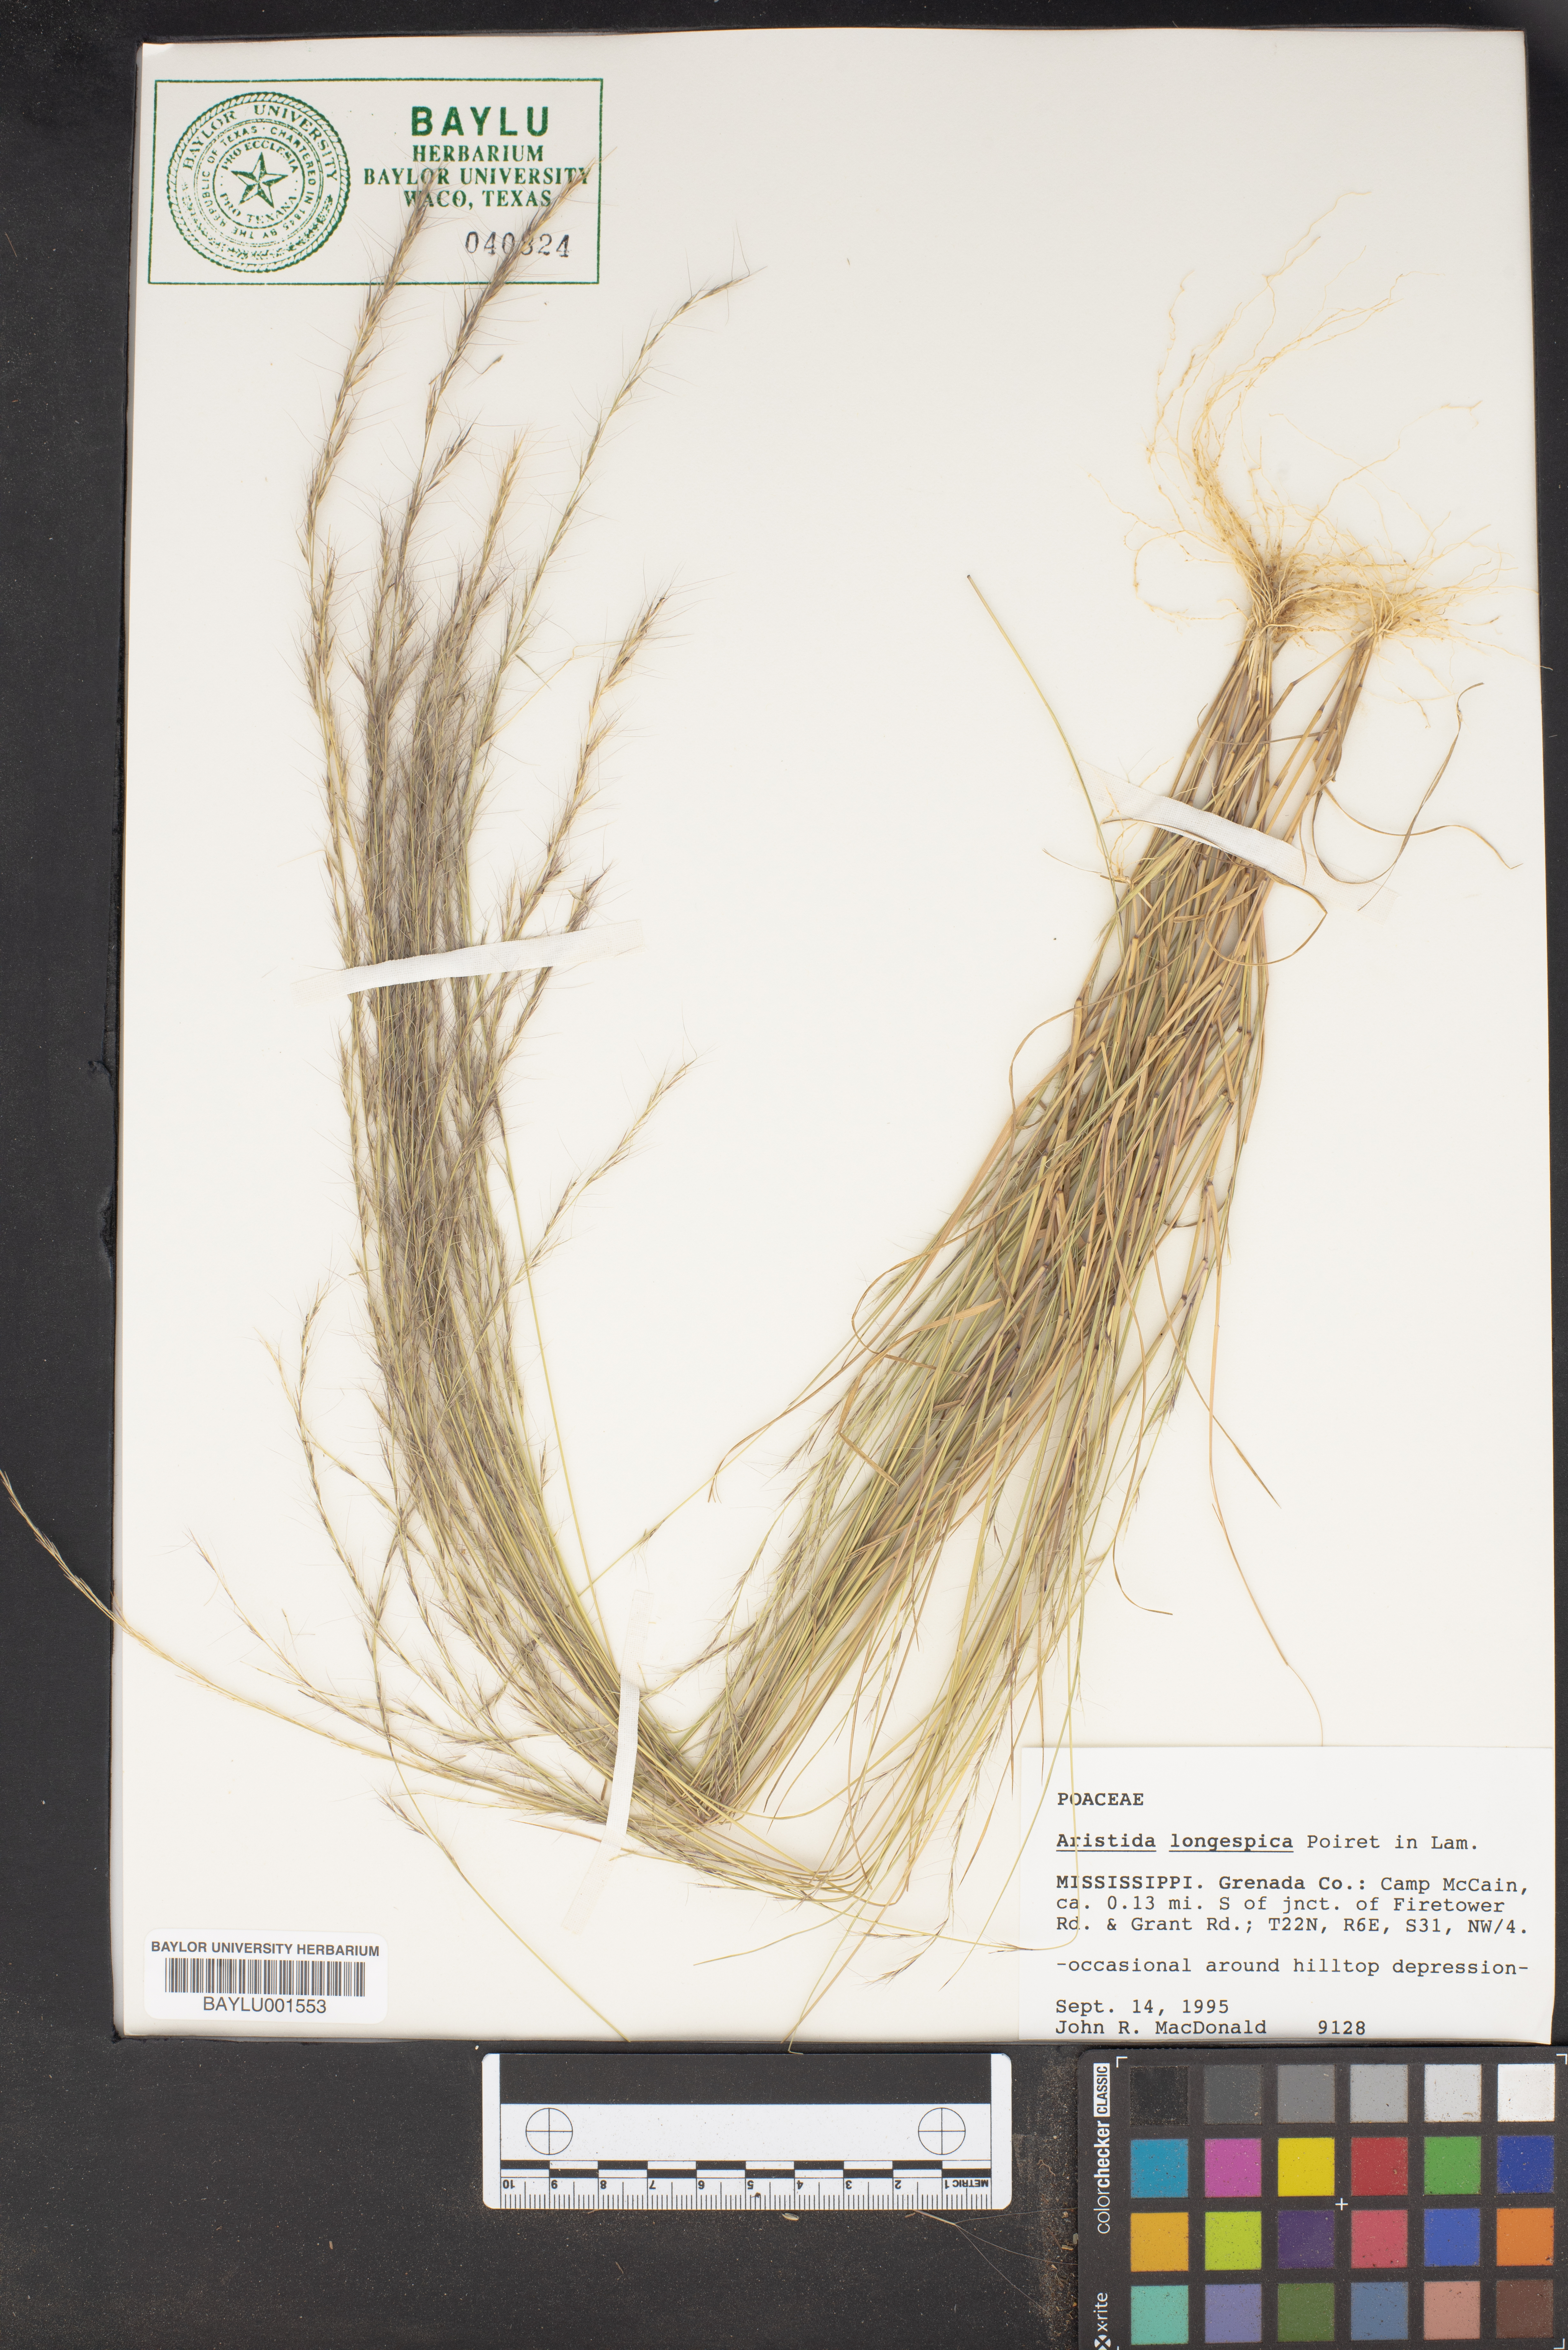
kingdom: Plantae
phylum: Tracheophyta
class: Liliopsida
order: Poales
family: Poaceae
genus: Aristida
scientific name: Aristida longespica
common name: Long-spiked triple-awned grass
